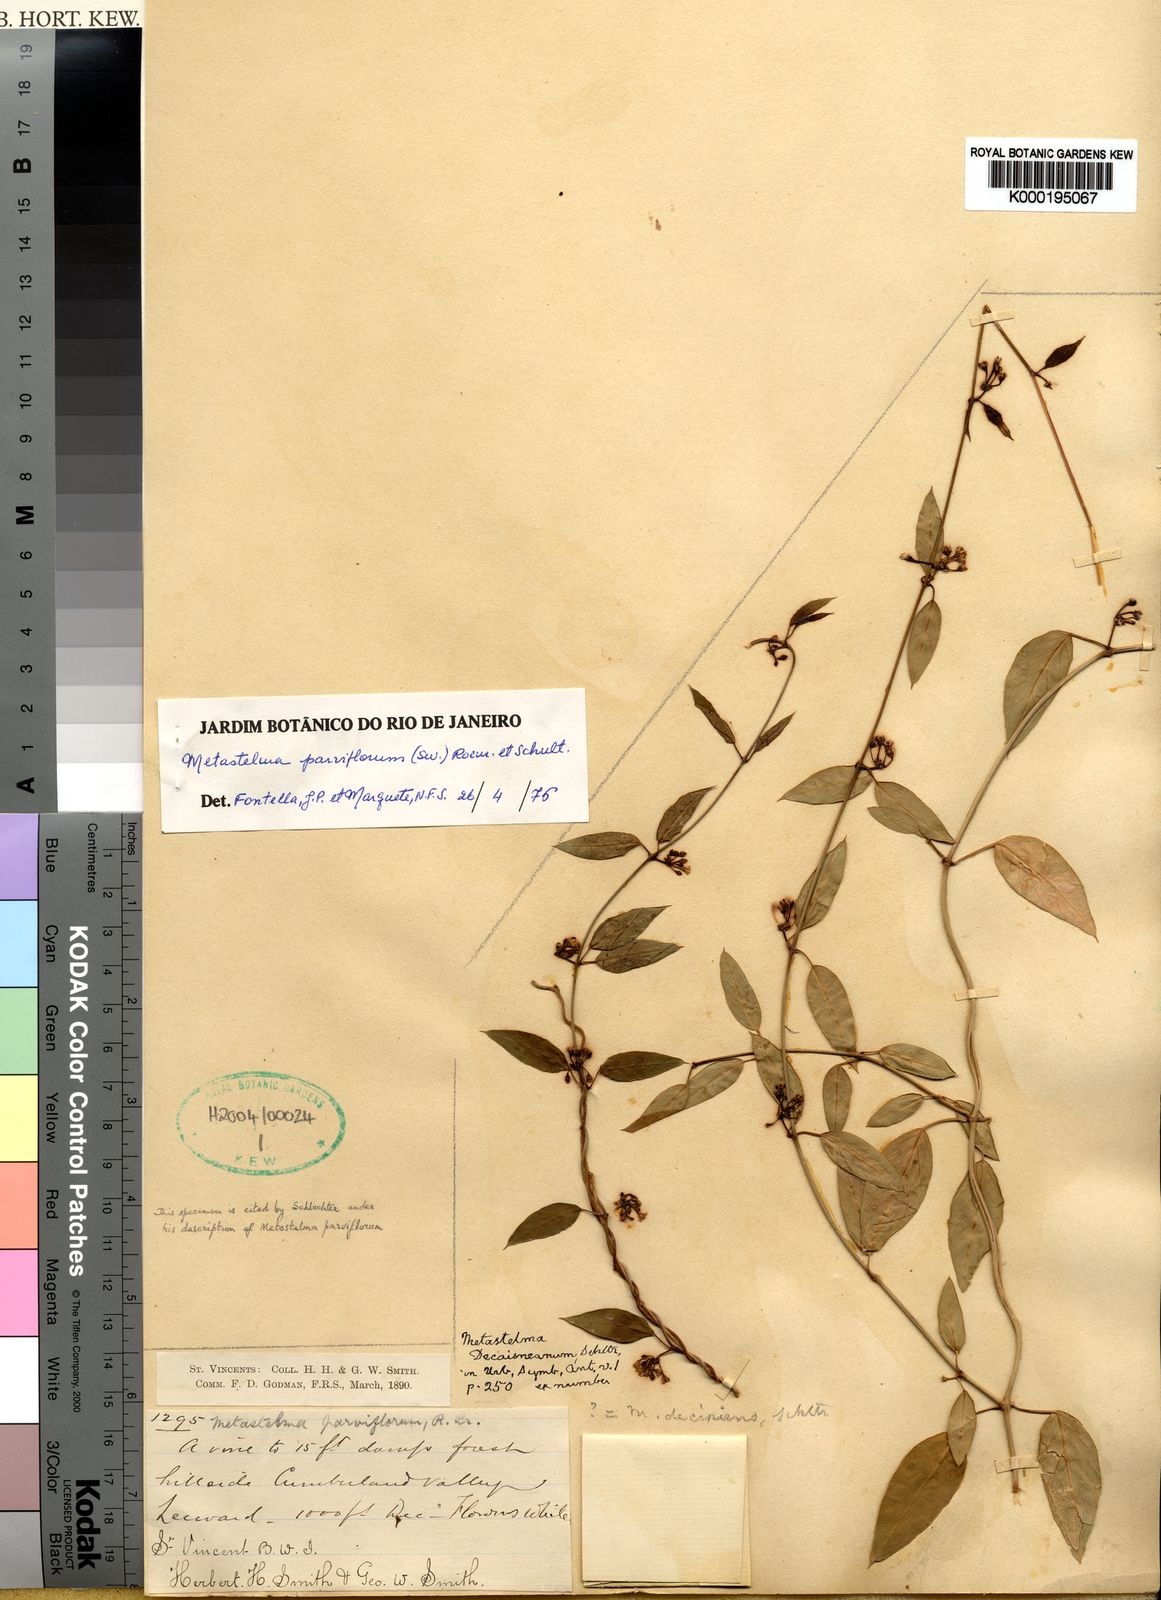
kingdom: Plantae
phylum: Tracheophyta
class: Magnoliopsida
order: Gentianales
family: Apocynaceae
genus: Metastelma
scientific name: Metastelma decipiens
